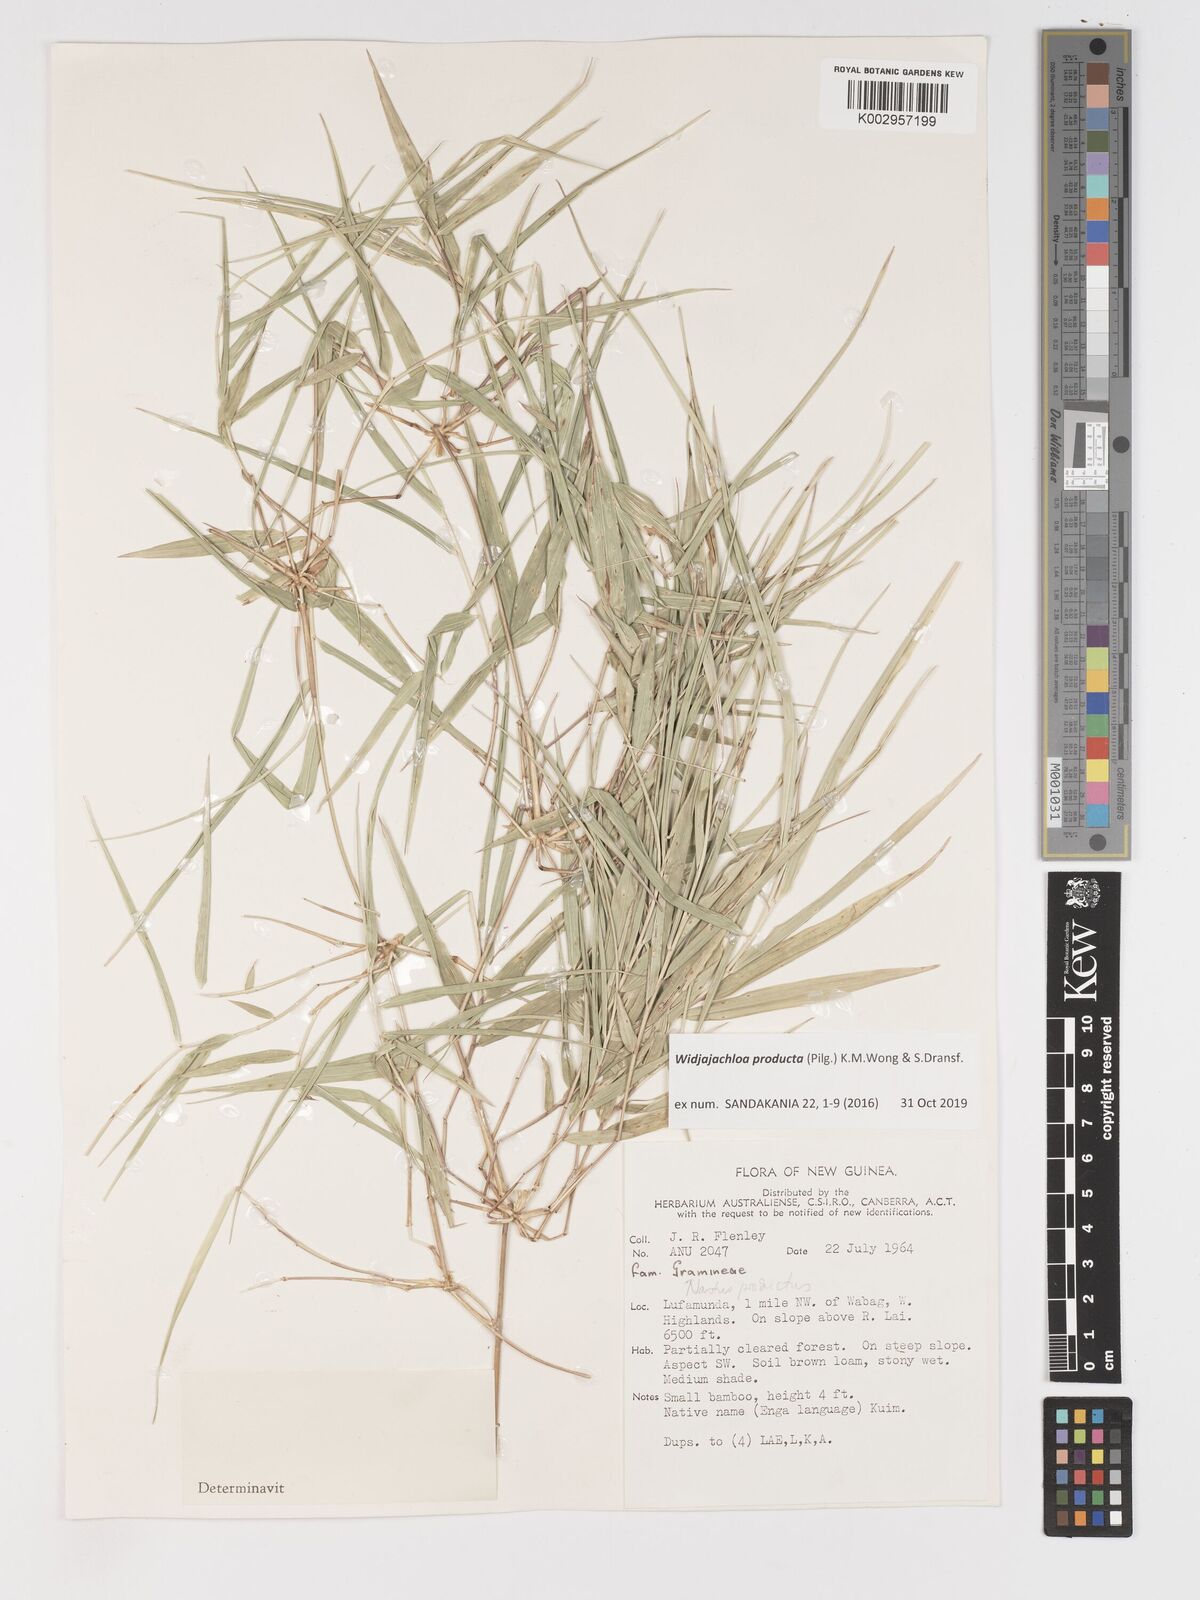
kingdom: Plantae
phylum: Tracheophyta
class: Liliopsida
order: Poales
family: Poaceae
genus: Widjajachloa
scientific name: Widjajachloa
